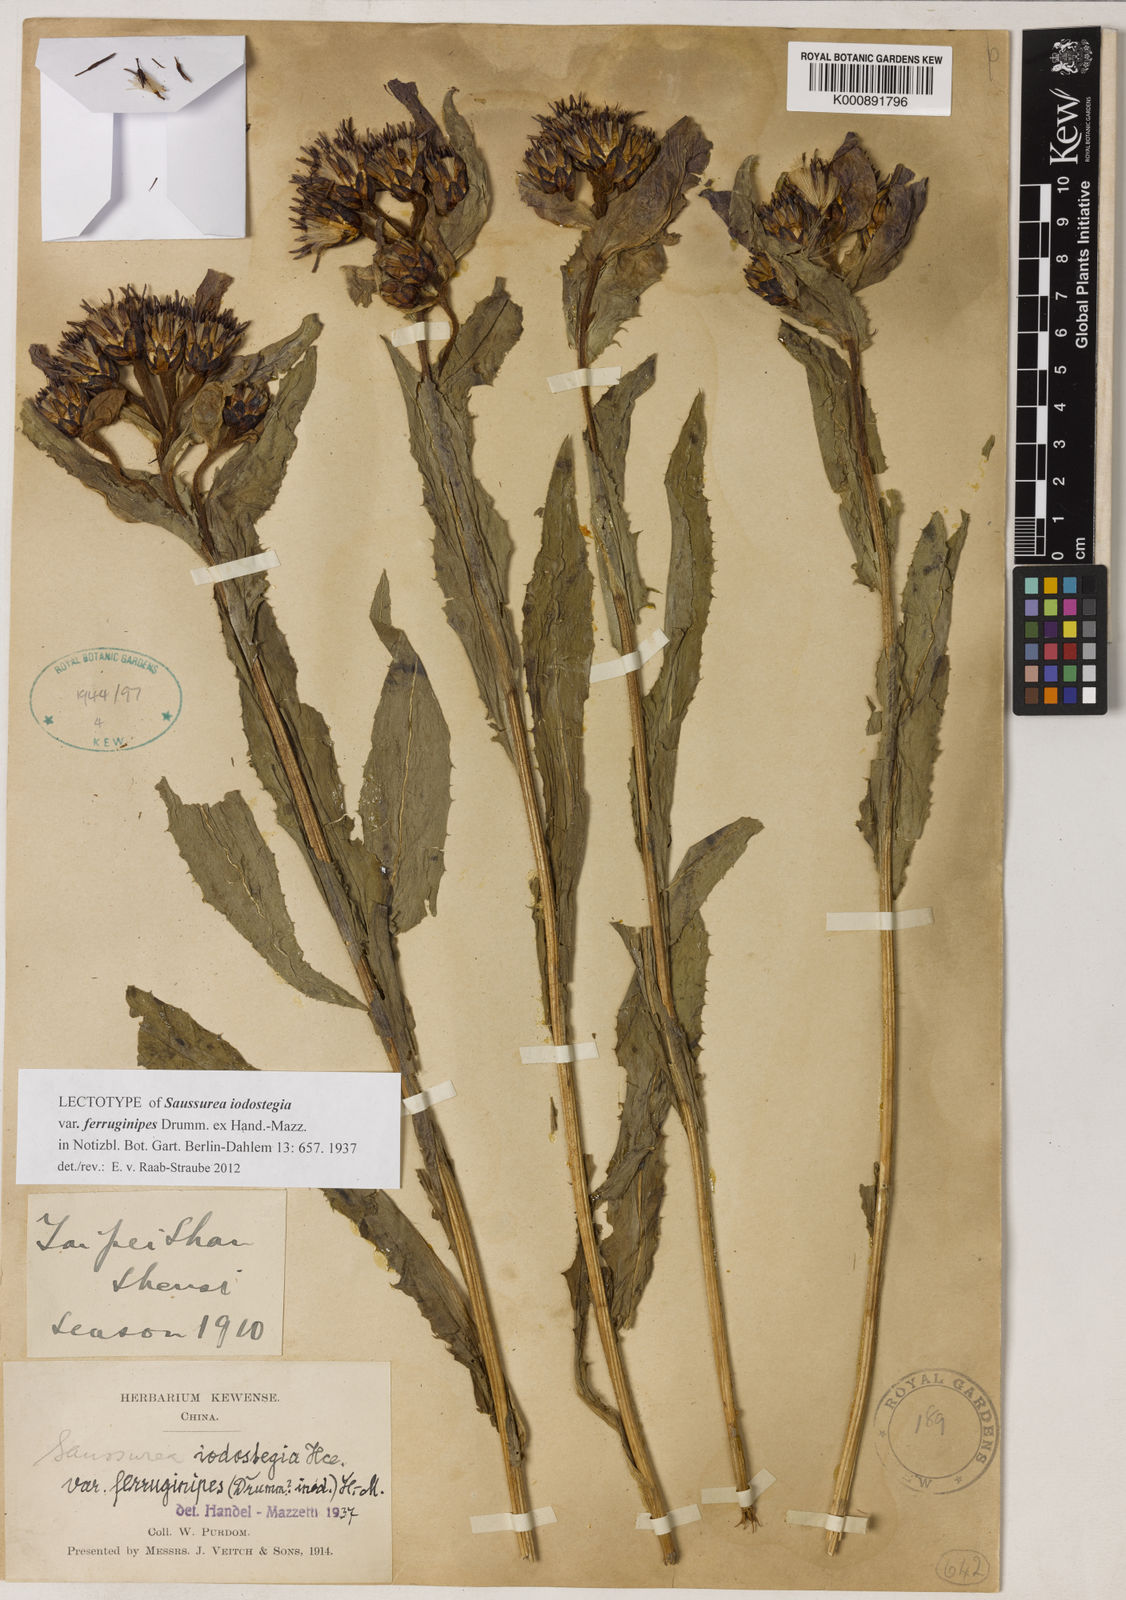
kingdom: Plantae
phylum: Tracheophyta
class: Magnoliopsida
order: Asterales
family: Asteraceae
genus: Saussurea
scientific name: Saussurea iodostegia
